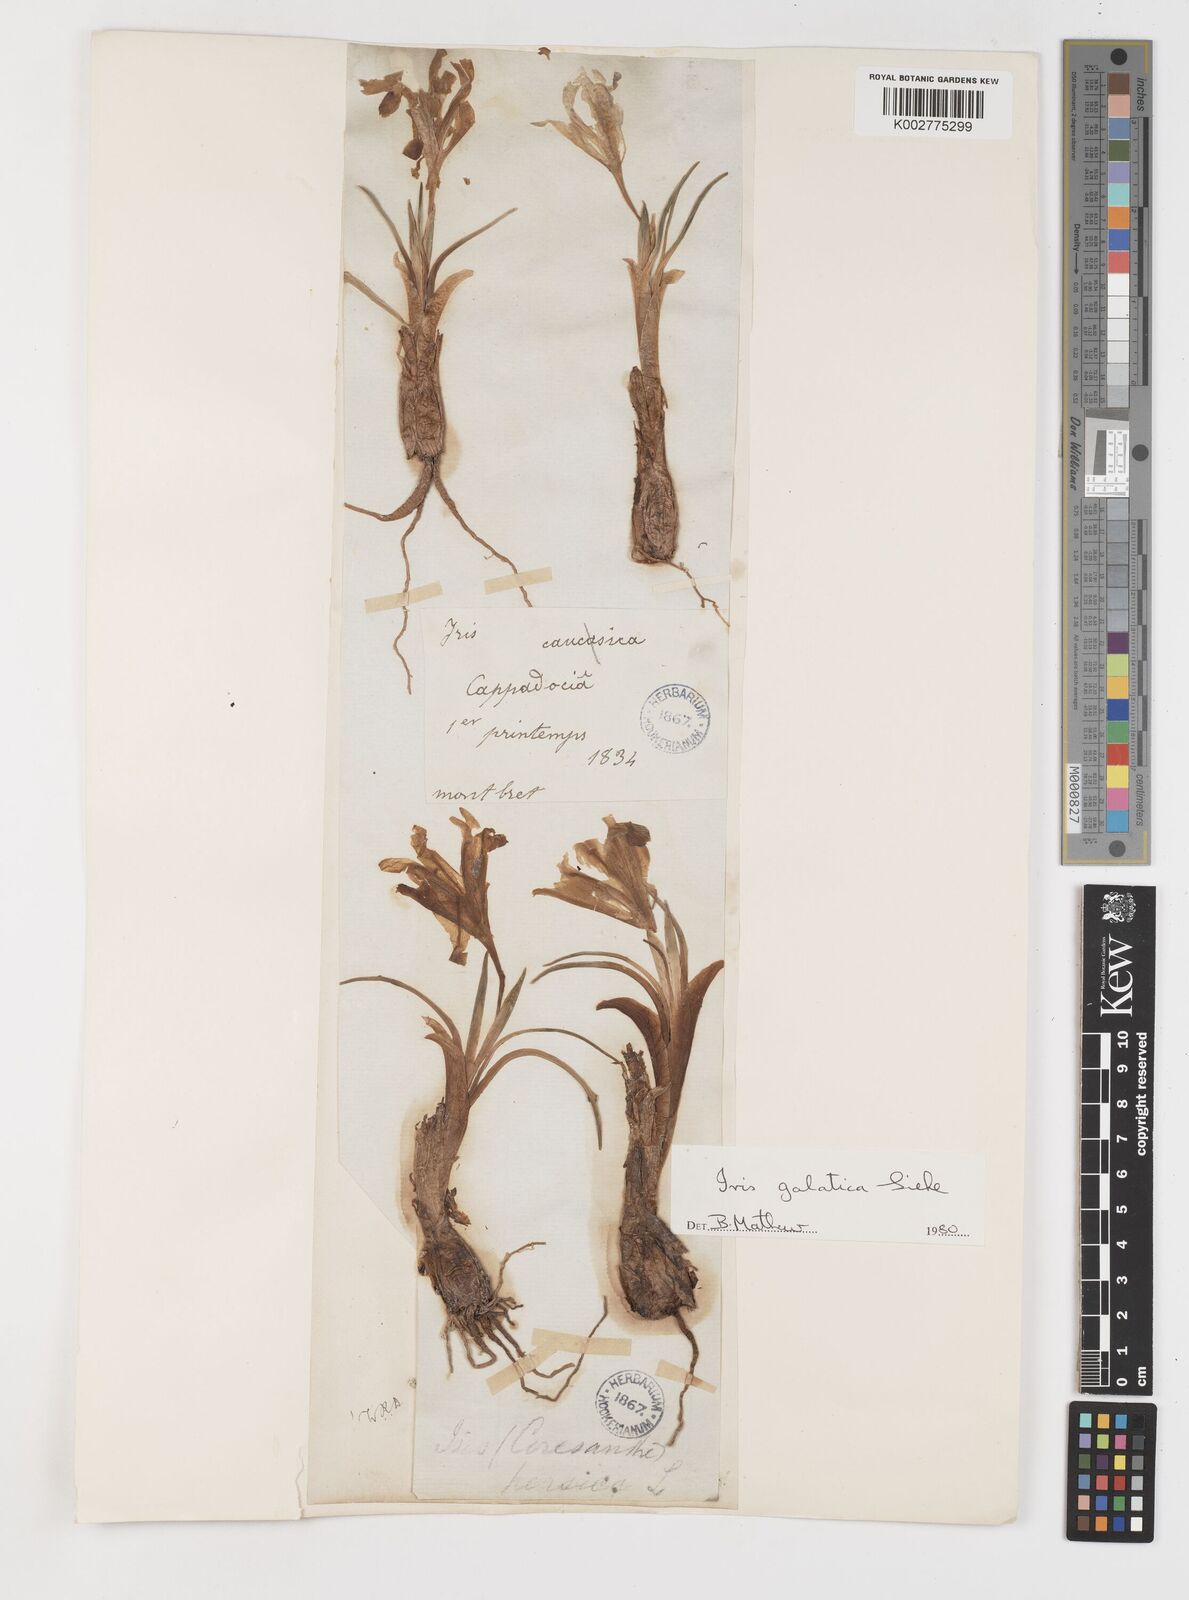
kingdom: Plantae
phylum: Tracheophyta
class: Liliopsida
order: Asparagales
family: Iridaceae
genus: Iris
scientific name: Iris galatica
